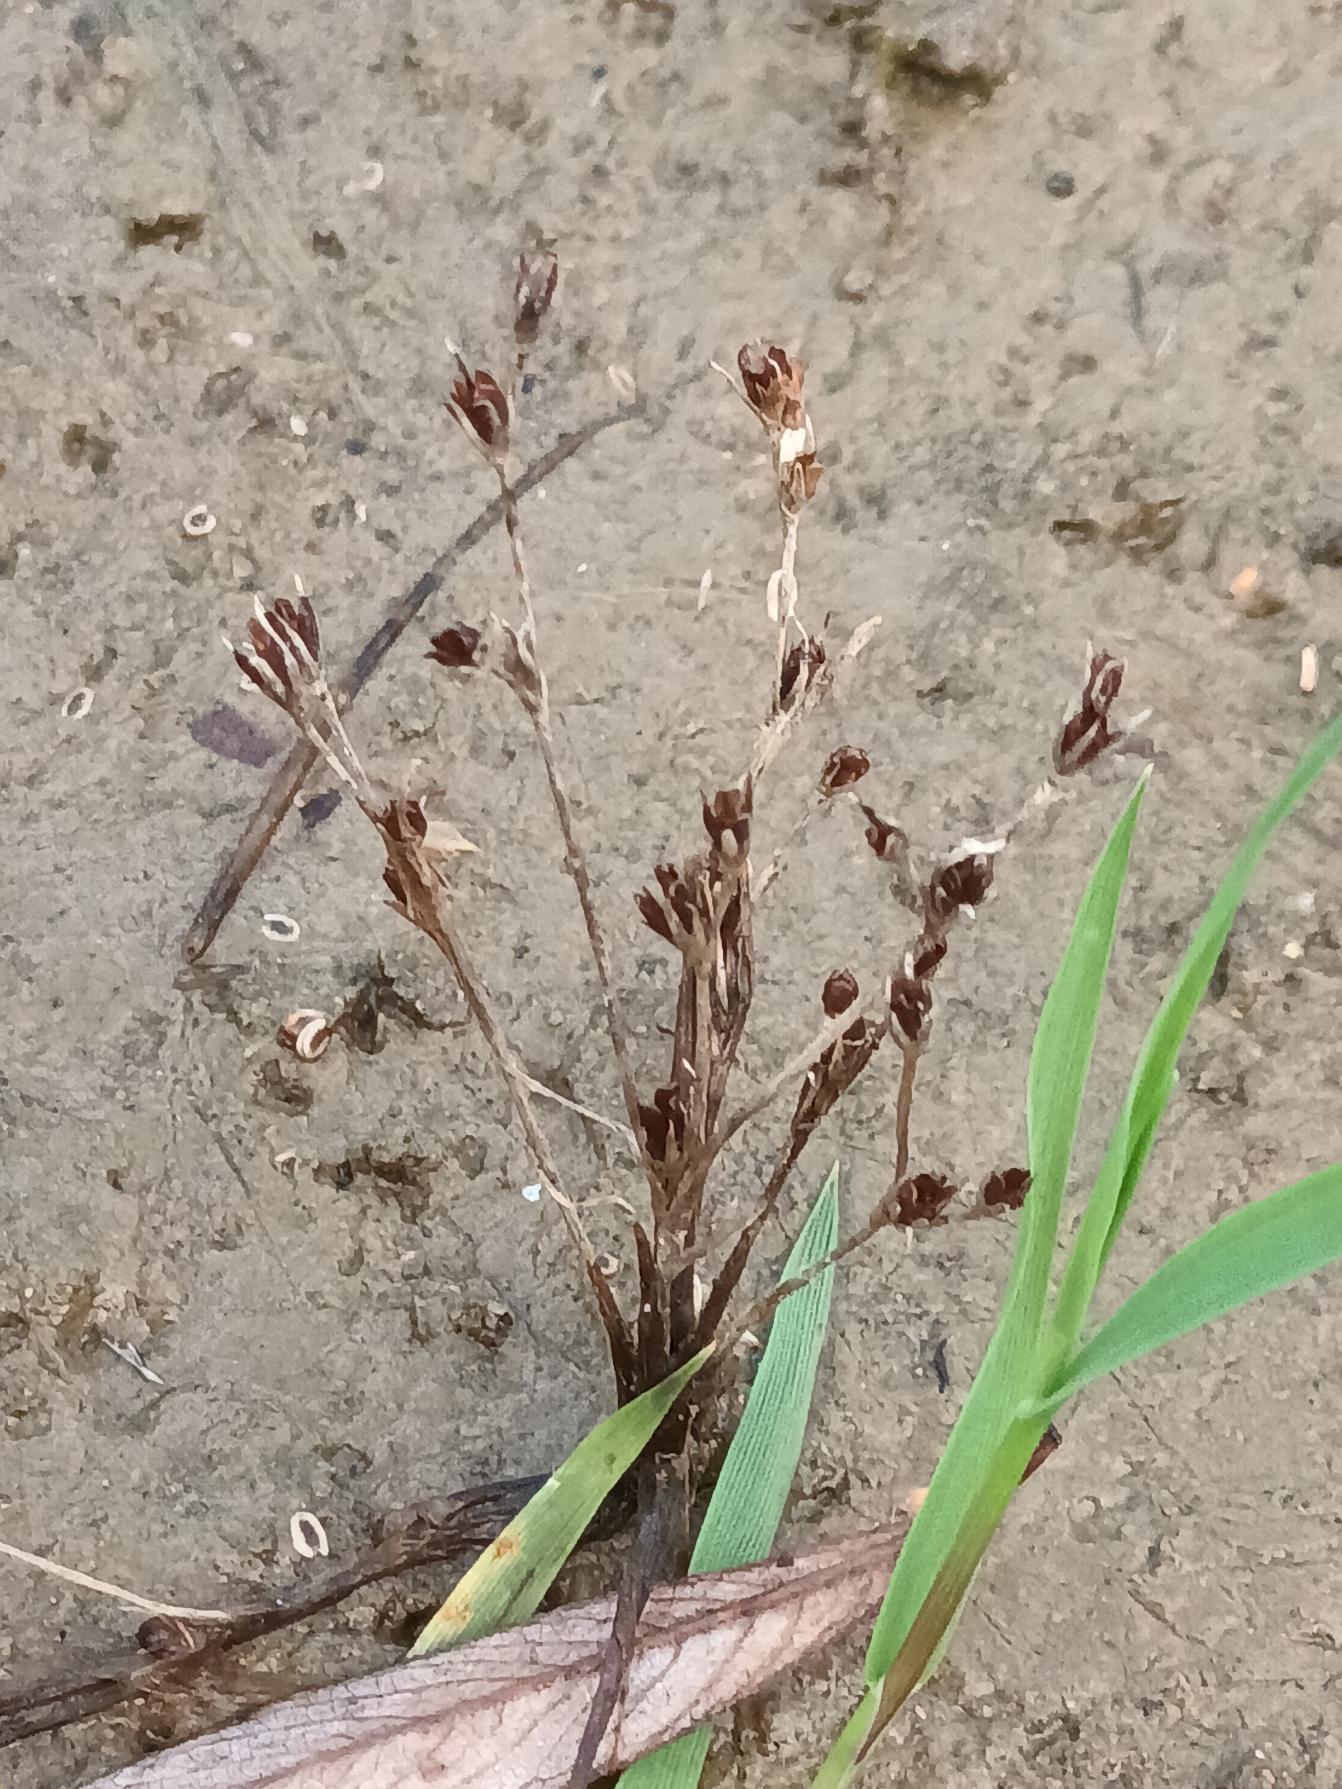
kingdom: Plantae
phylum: Tracheophyta
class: Liliopsida
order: Poales
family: Juncaceae
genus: Juncus
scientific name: Juncus articulatus
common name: Glanskapslet siv
